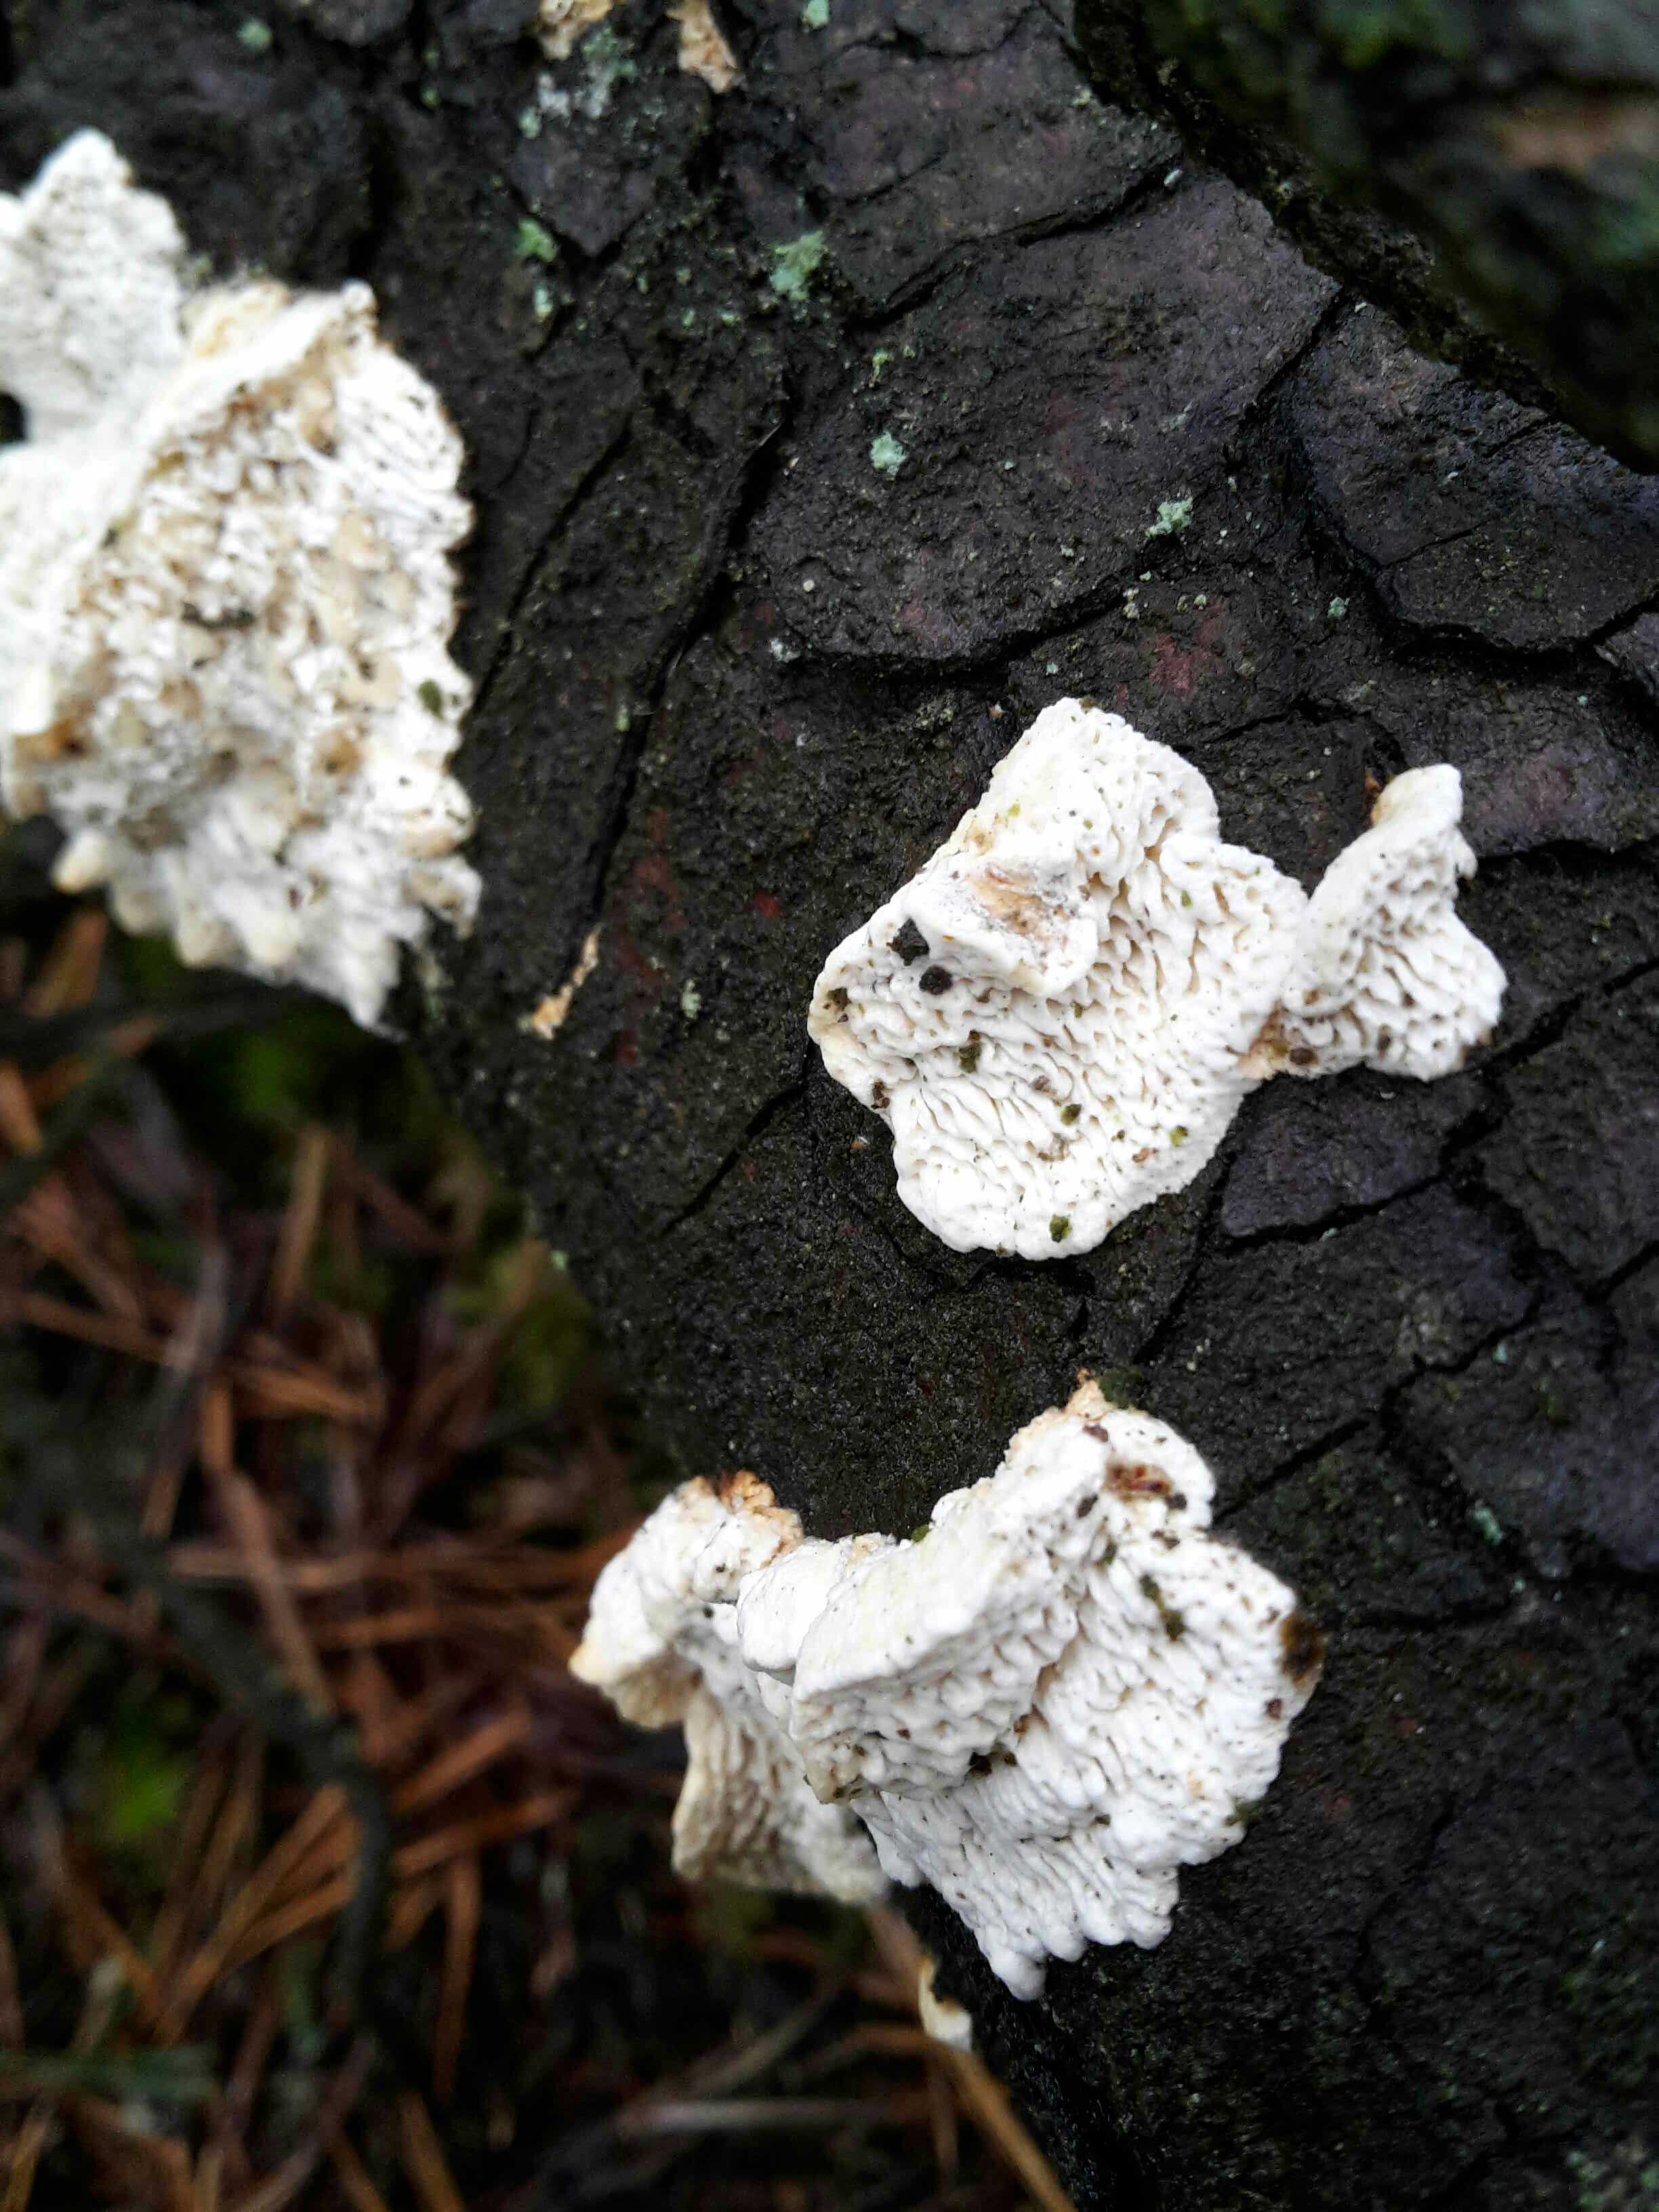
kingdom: Fungi
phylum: Basidiomycota
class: Agaricomycetes
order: Polyporales
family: Fomitopsidaceae
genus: Fomitopsis
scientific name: Fomitopsis
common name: fyrre-skiveporesvamp
